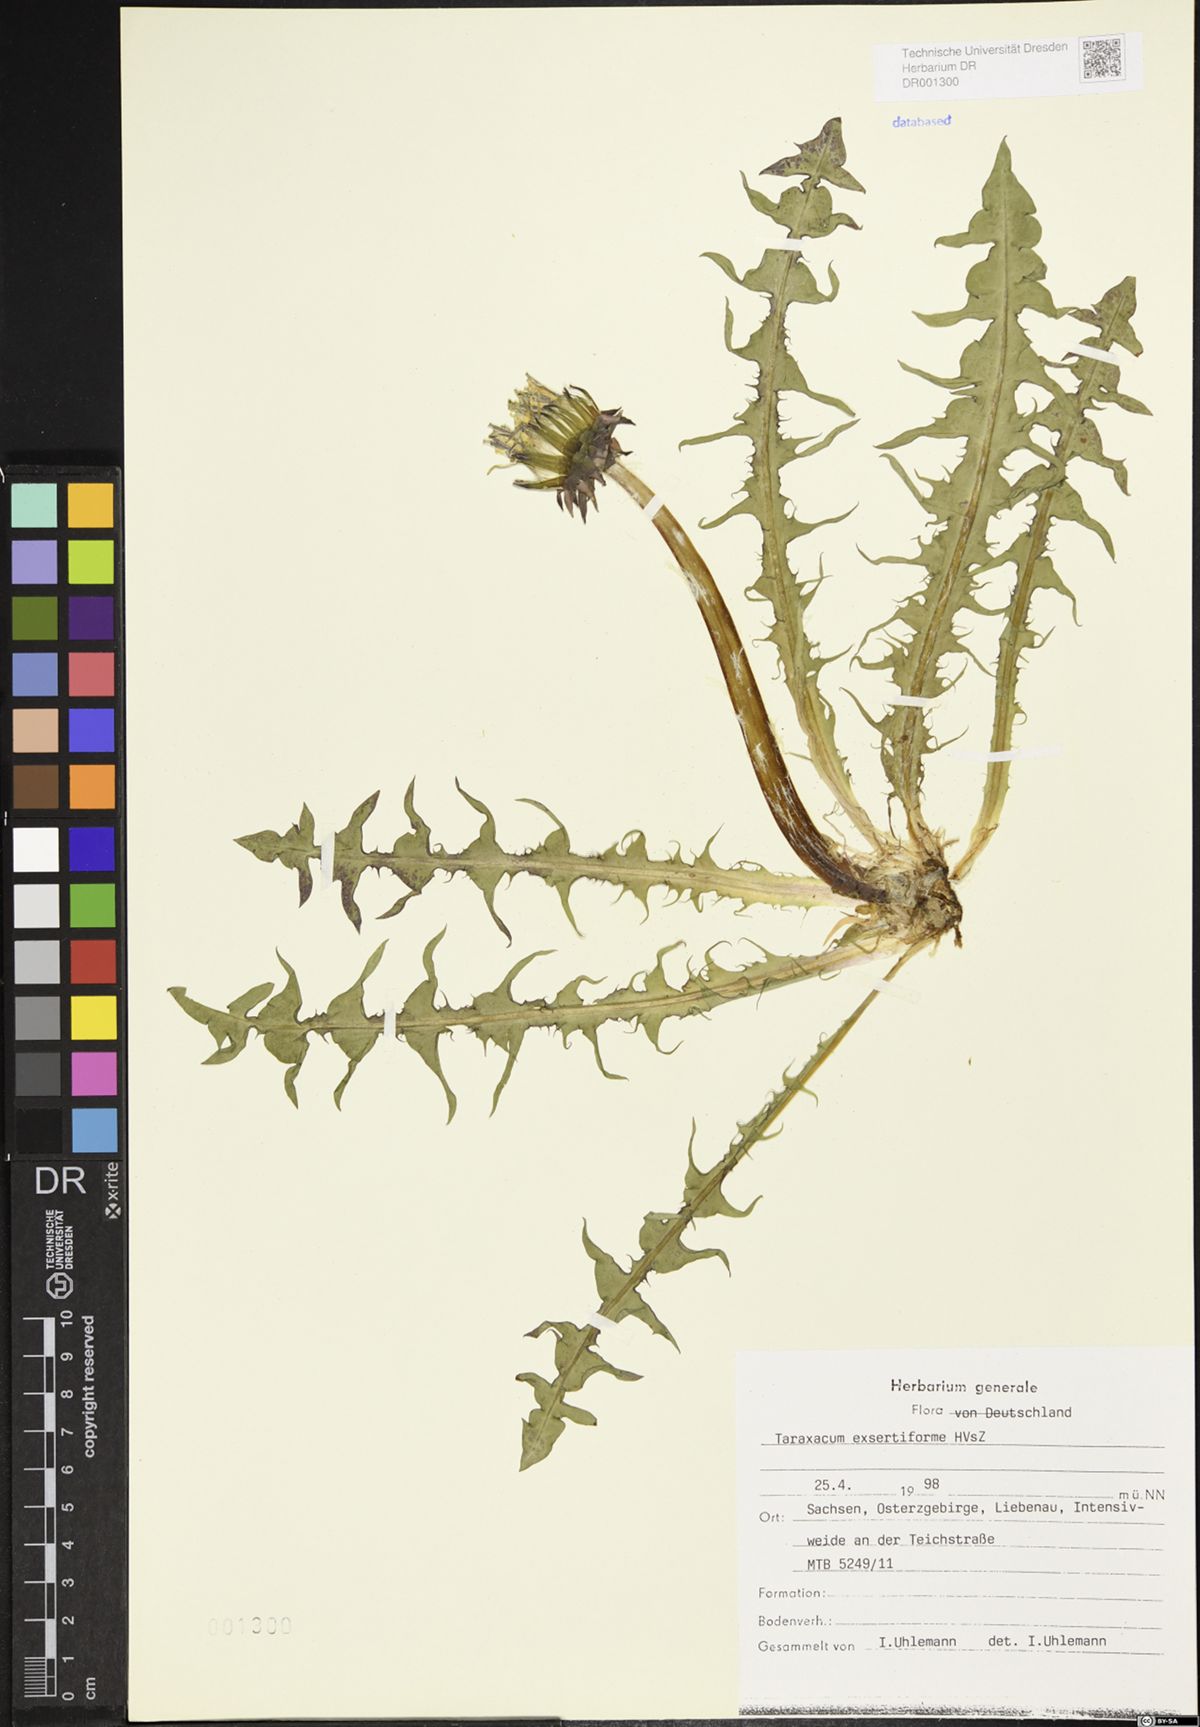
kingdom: Plantae
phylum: Tracheophyta
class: Magnoliopsida
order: Asterales
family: Asteraceae
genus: Taraxacum
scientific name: Taraxacum exsertiforme
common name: Erect-bracted dandelion
